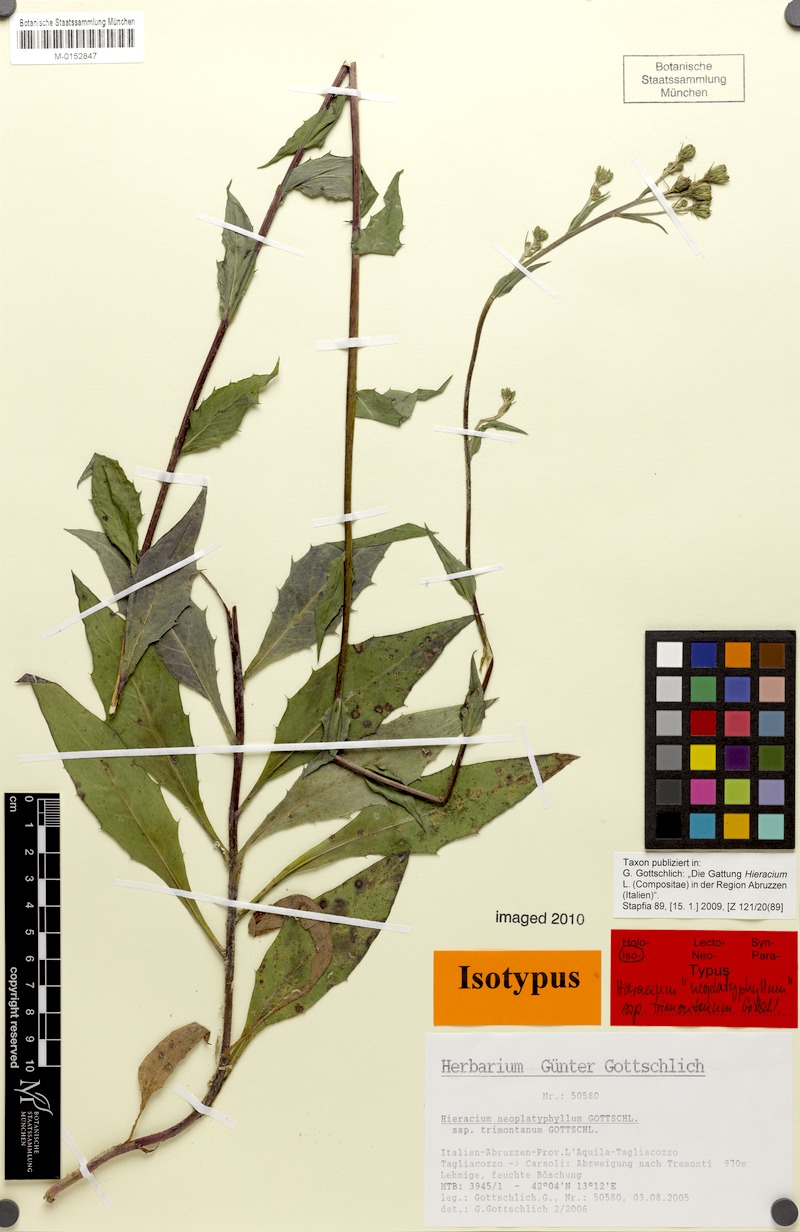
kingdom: Plantae
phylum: Tracheophyta
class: Magnoliopsida
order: Asterales
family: Asteraceae
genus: Hieracium
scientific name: Hieracium neoplatyphyllum
